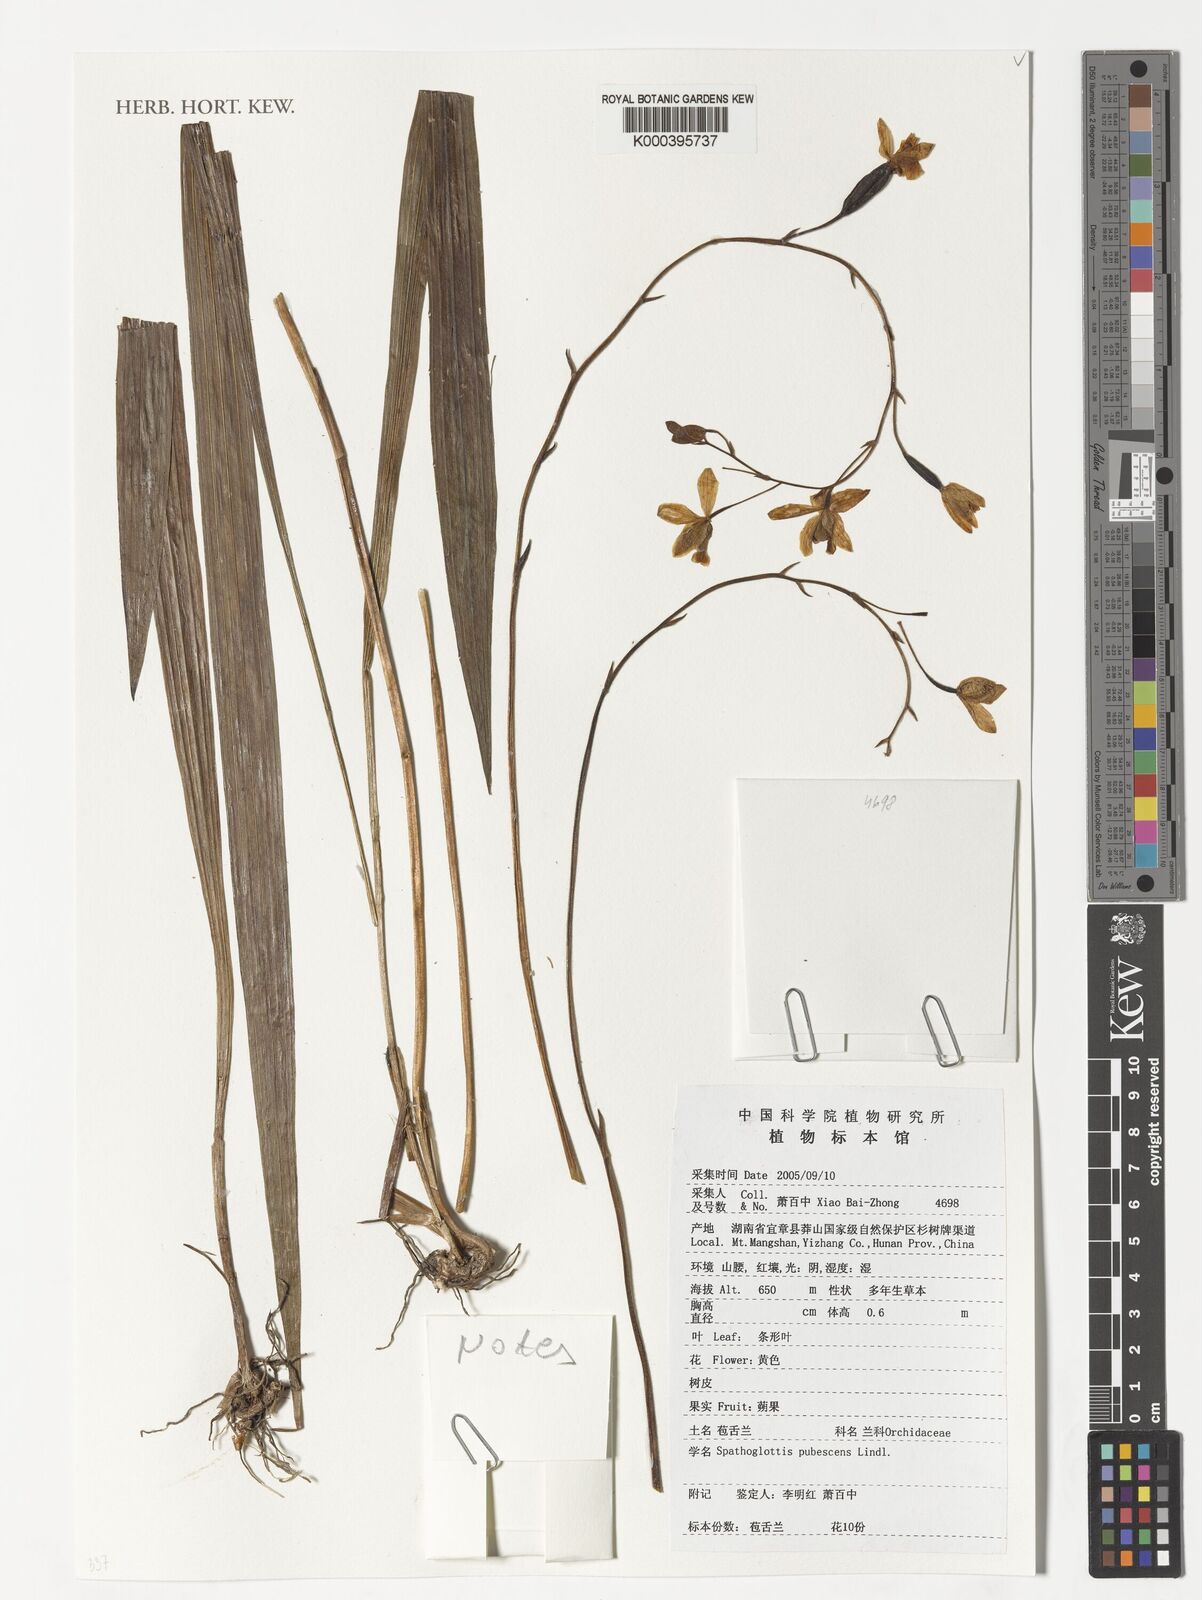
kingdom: Plantae
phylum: Tracheophyta
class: Liliopsida
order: Asparagales
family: Orchidaceae
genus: Spathoglottis
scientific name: Spathoglottis pubescens
